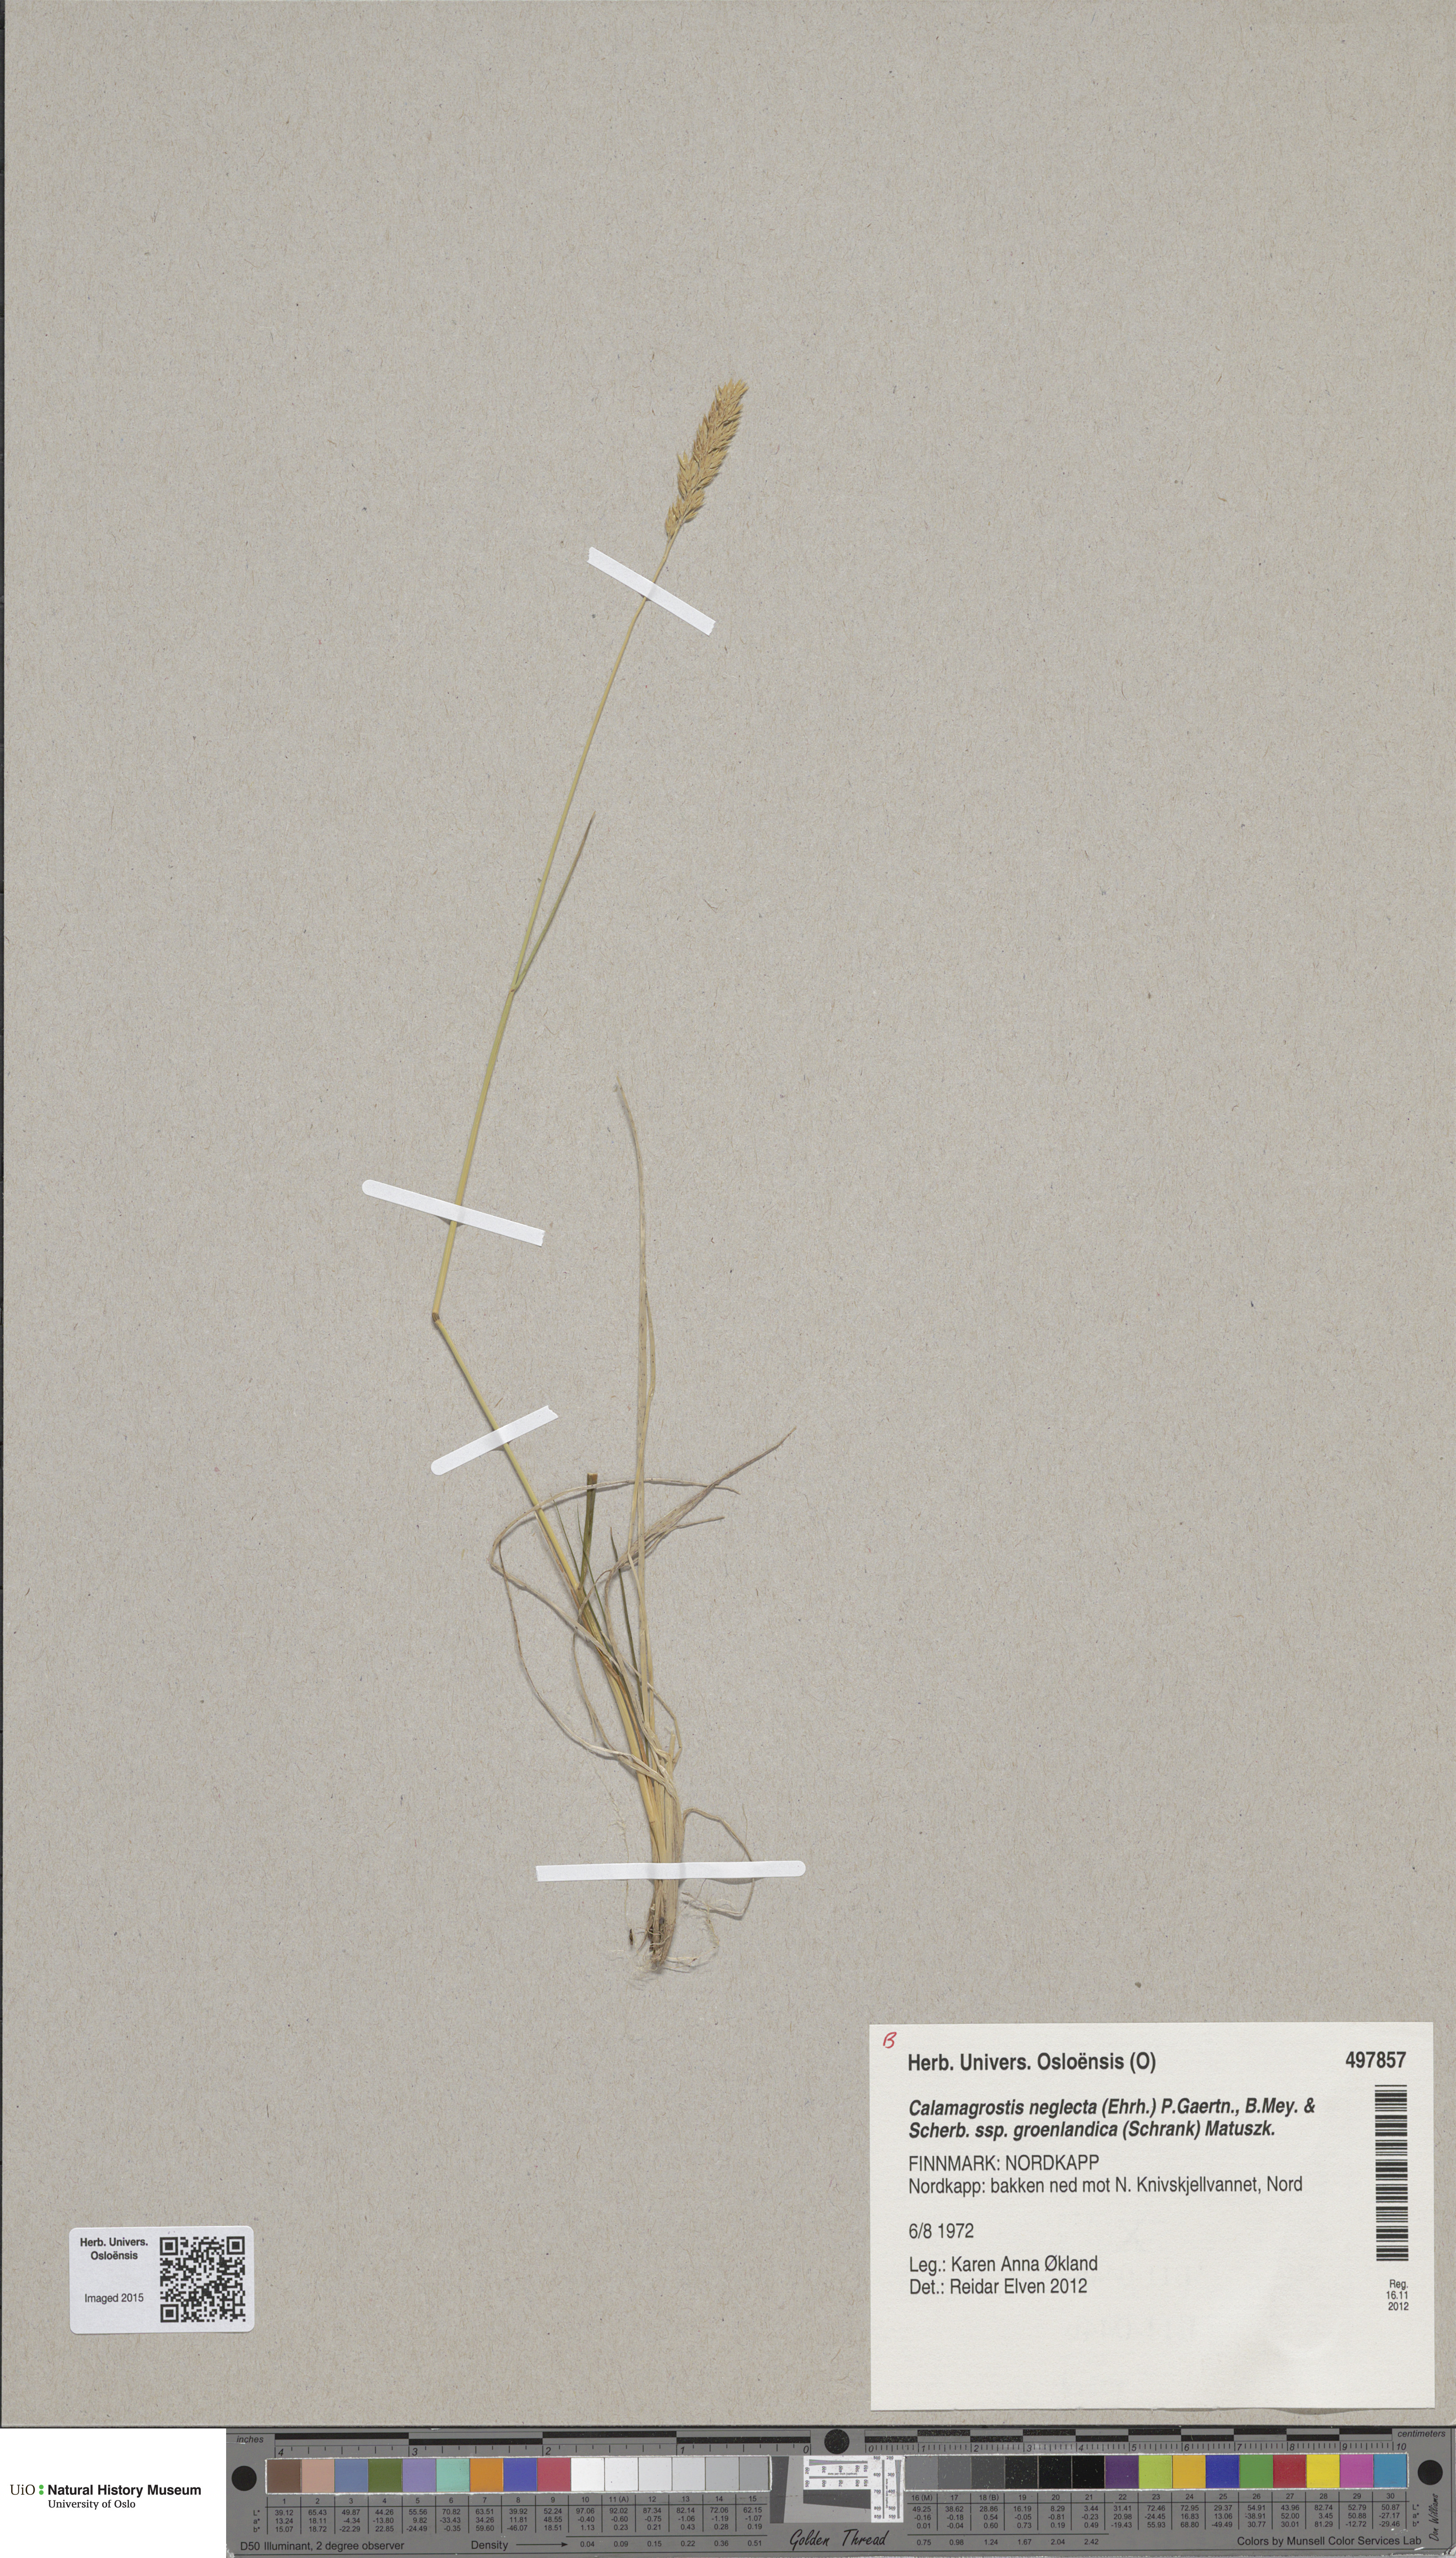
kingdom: Plantae
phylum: Tracheophyta
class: Liliopsida
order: Poales
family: Poaceae
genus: Calamagrostis
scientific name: Calamagrostis stricta
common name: Narrow small-reed
